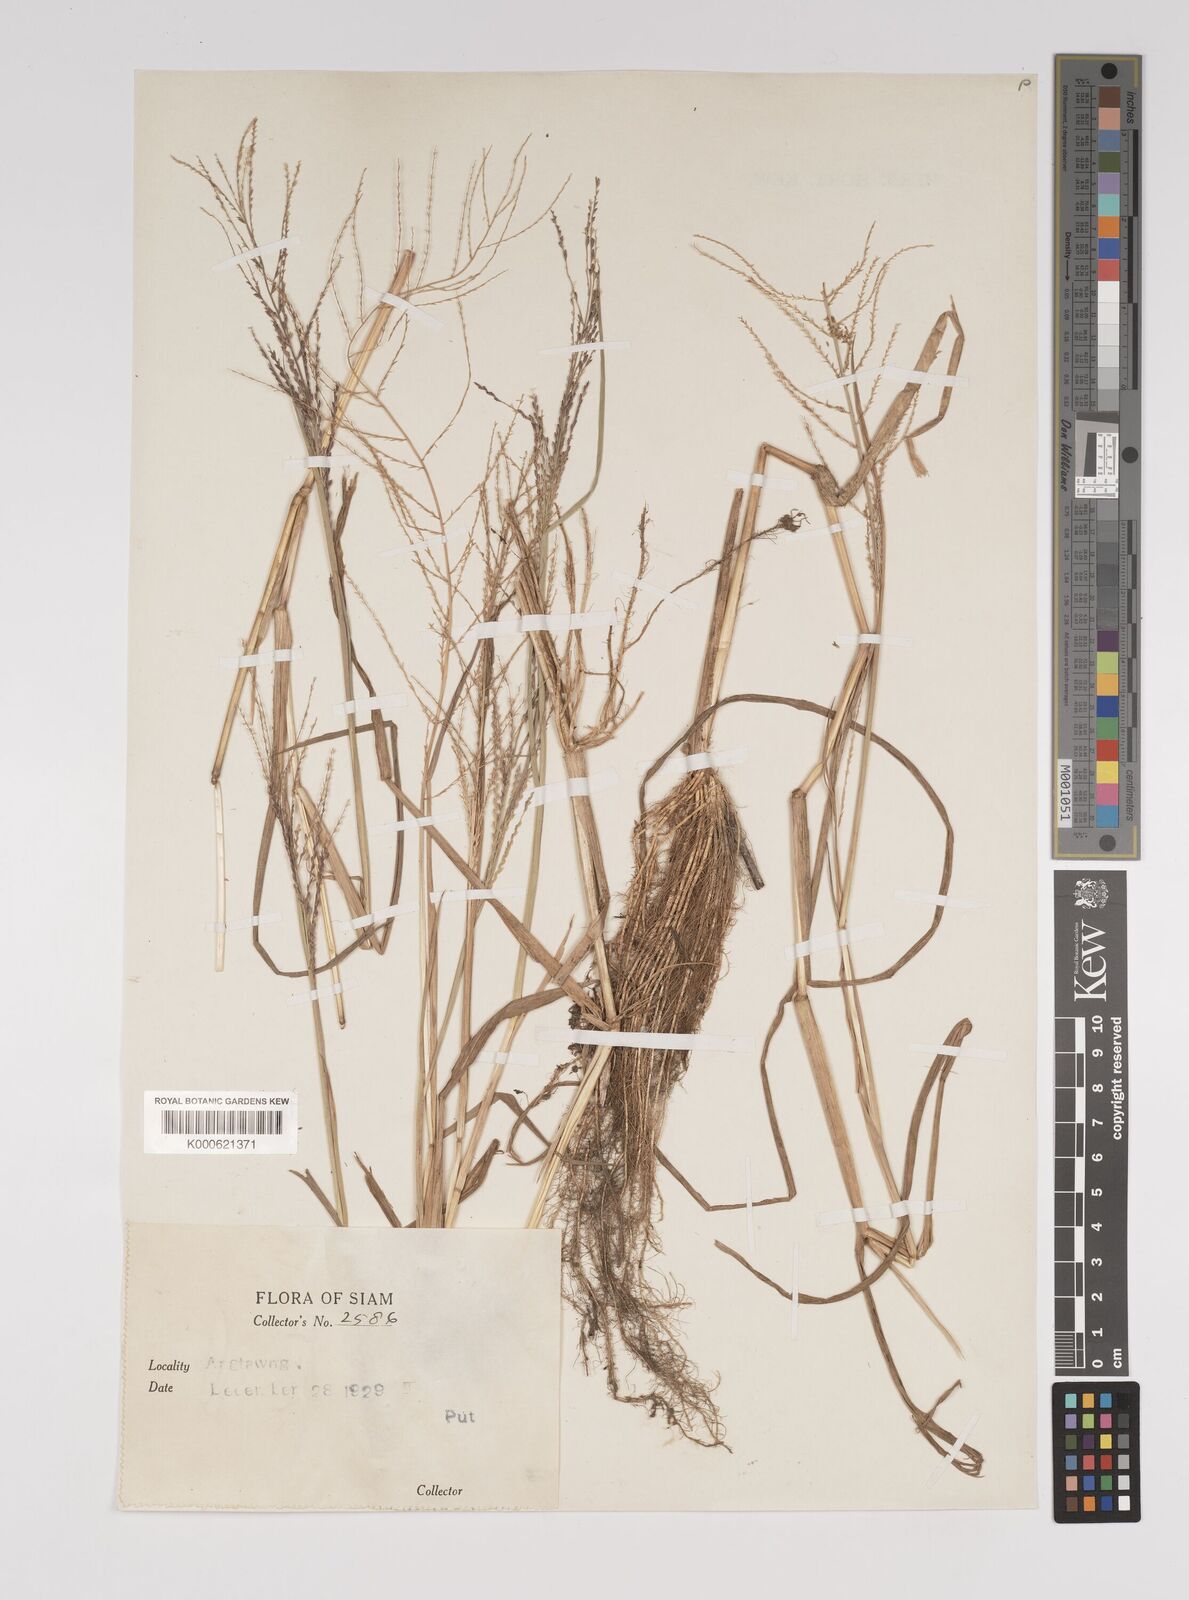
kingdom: Plantae
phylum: Tracheophyta
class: Liliopsida
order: Poales
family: Poaceae
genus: Leptochloa
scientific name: Leptochloa chinensis
